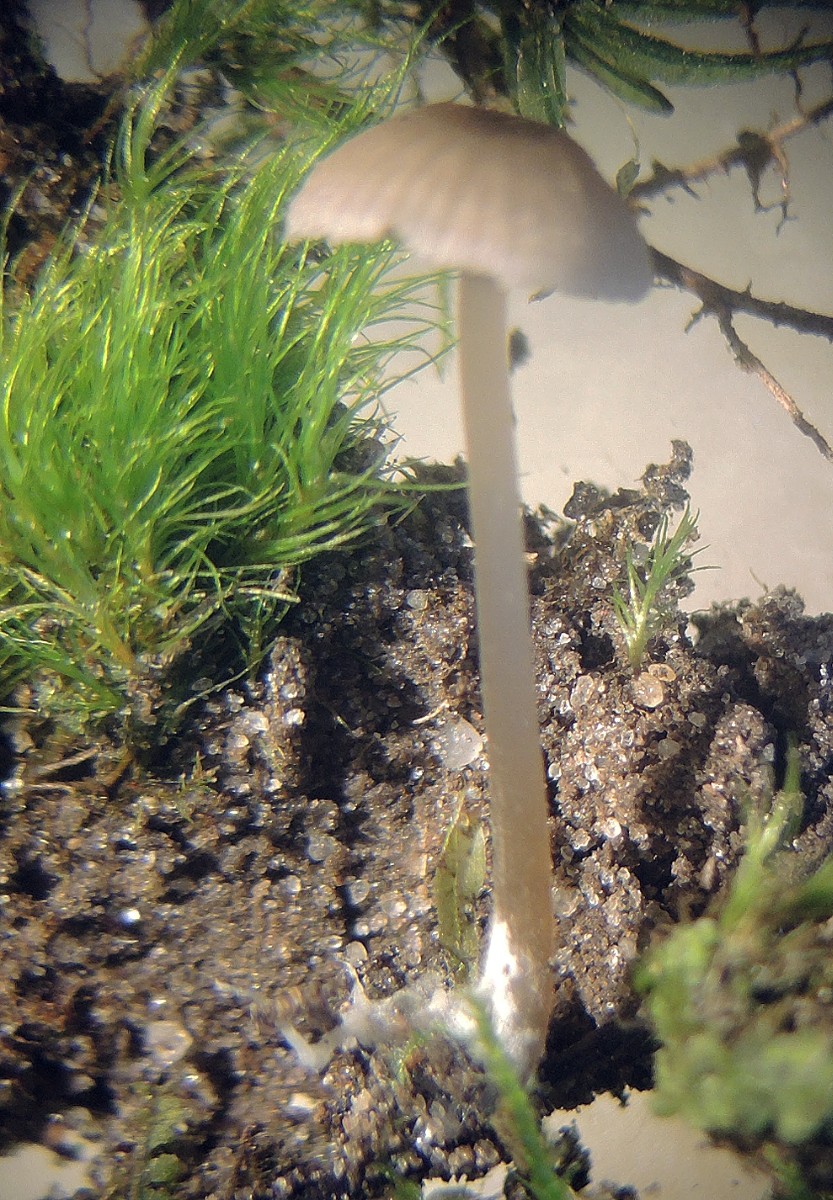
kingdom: Fungi
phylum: Basidiomycota
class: Agaricomycetes
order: Agaricales
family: Entolomataceae
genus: Entoloma
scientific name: Entoloma minutum
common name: liden rødblad
